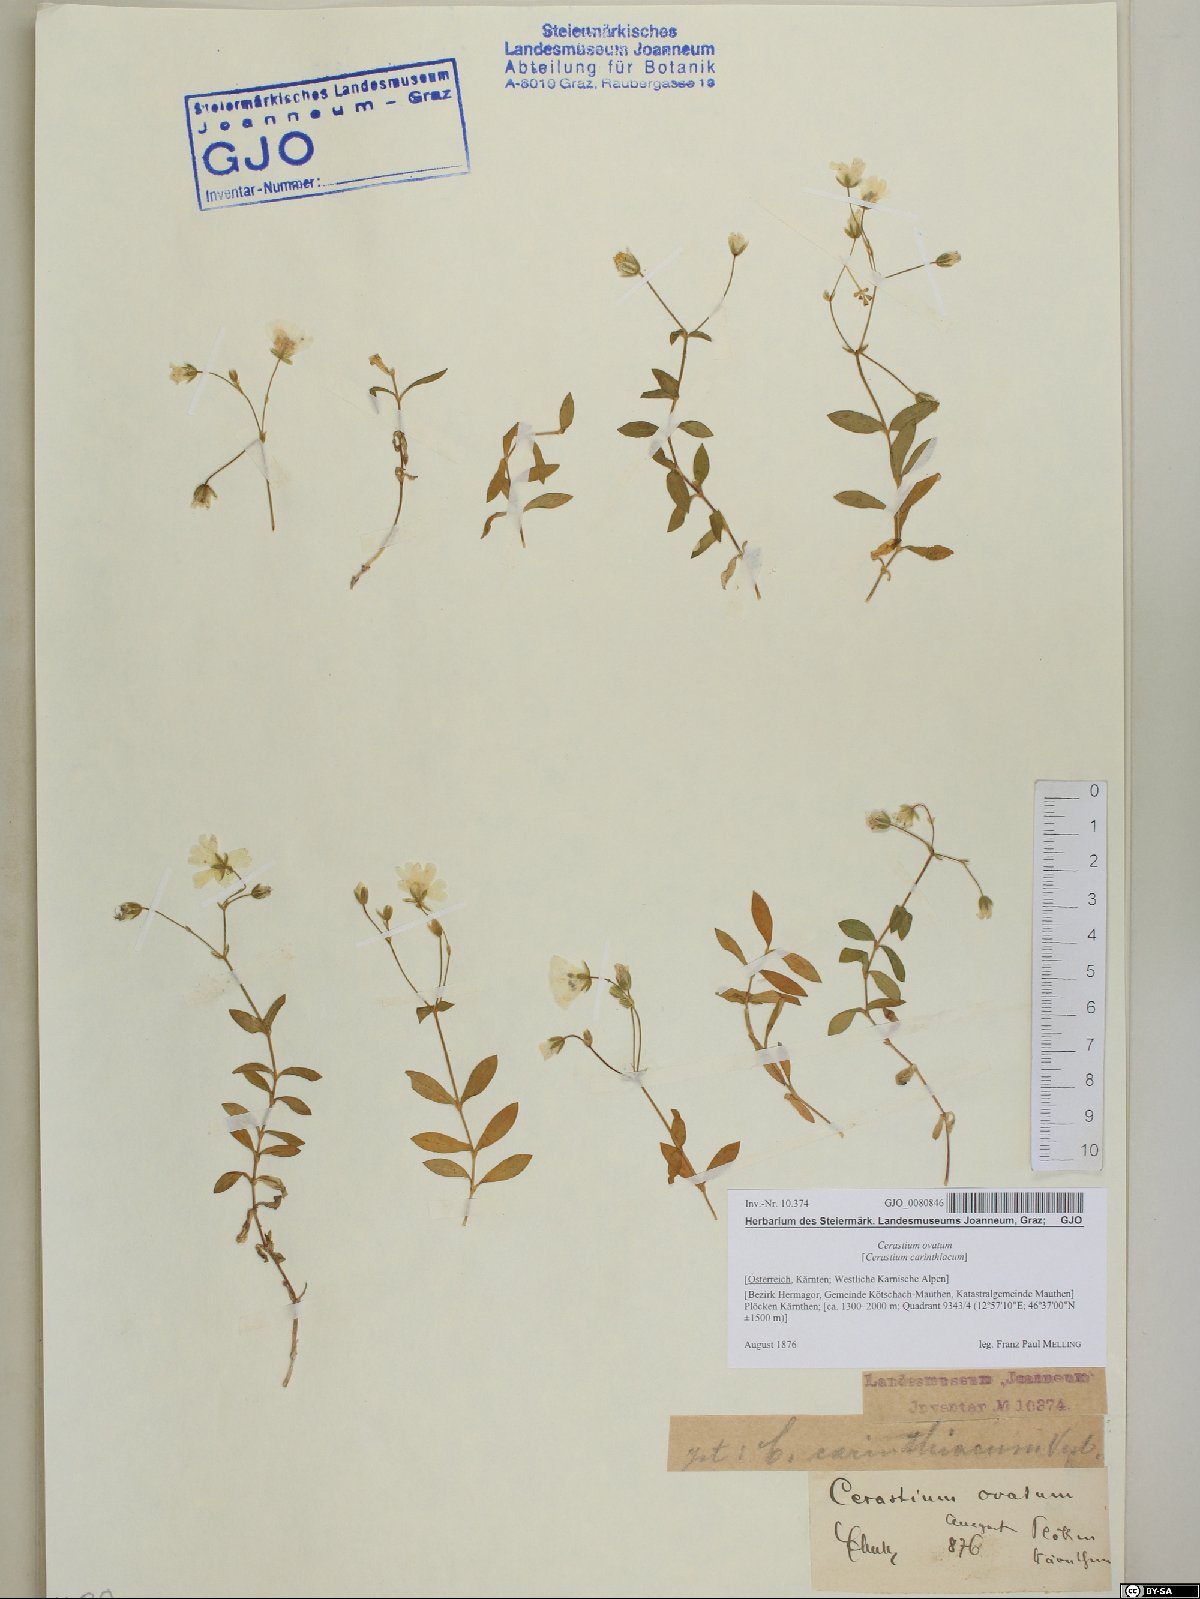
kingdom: Plantae
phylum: Tracheophyta
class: Magnoliopsida
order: Caryophyllales
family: Caryophyllaceae
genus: Cerastium
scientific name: Cerastium arvense
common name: Field mouse-ear
